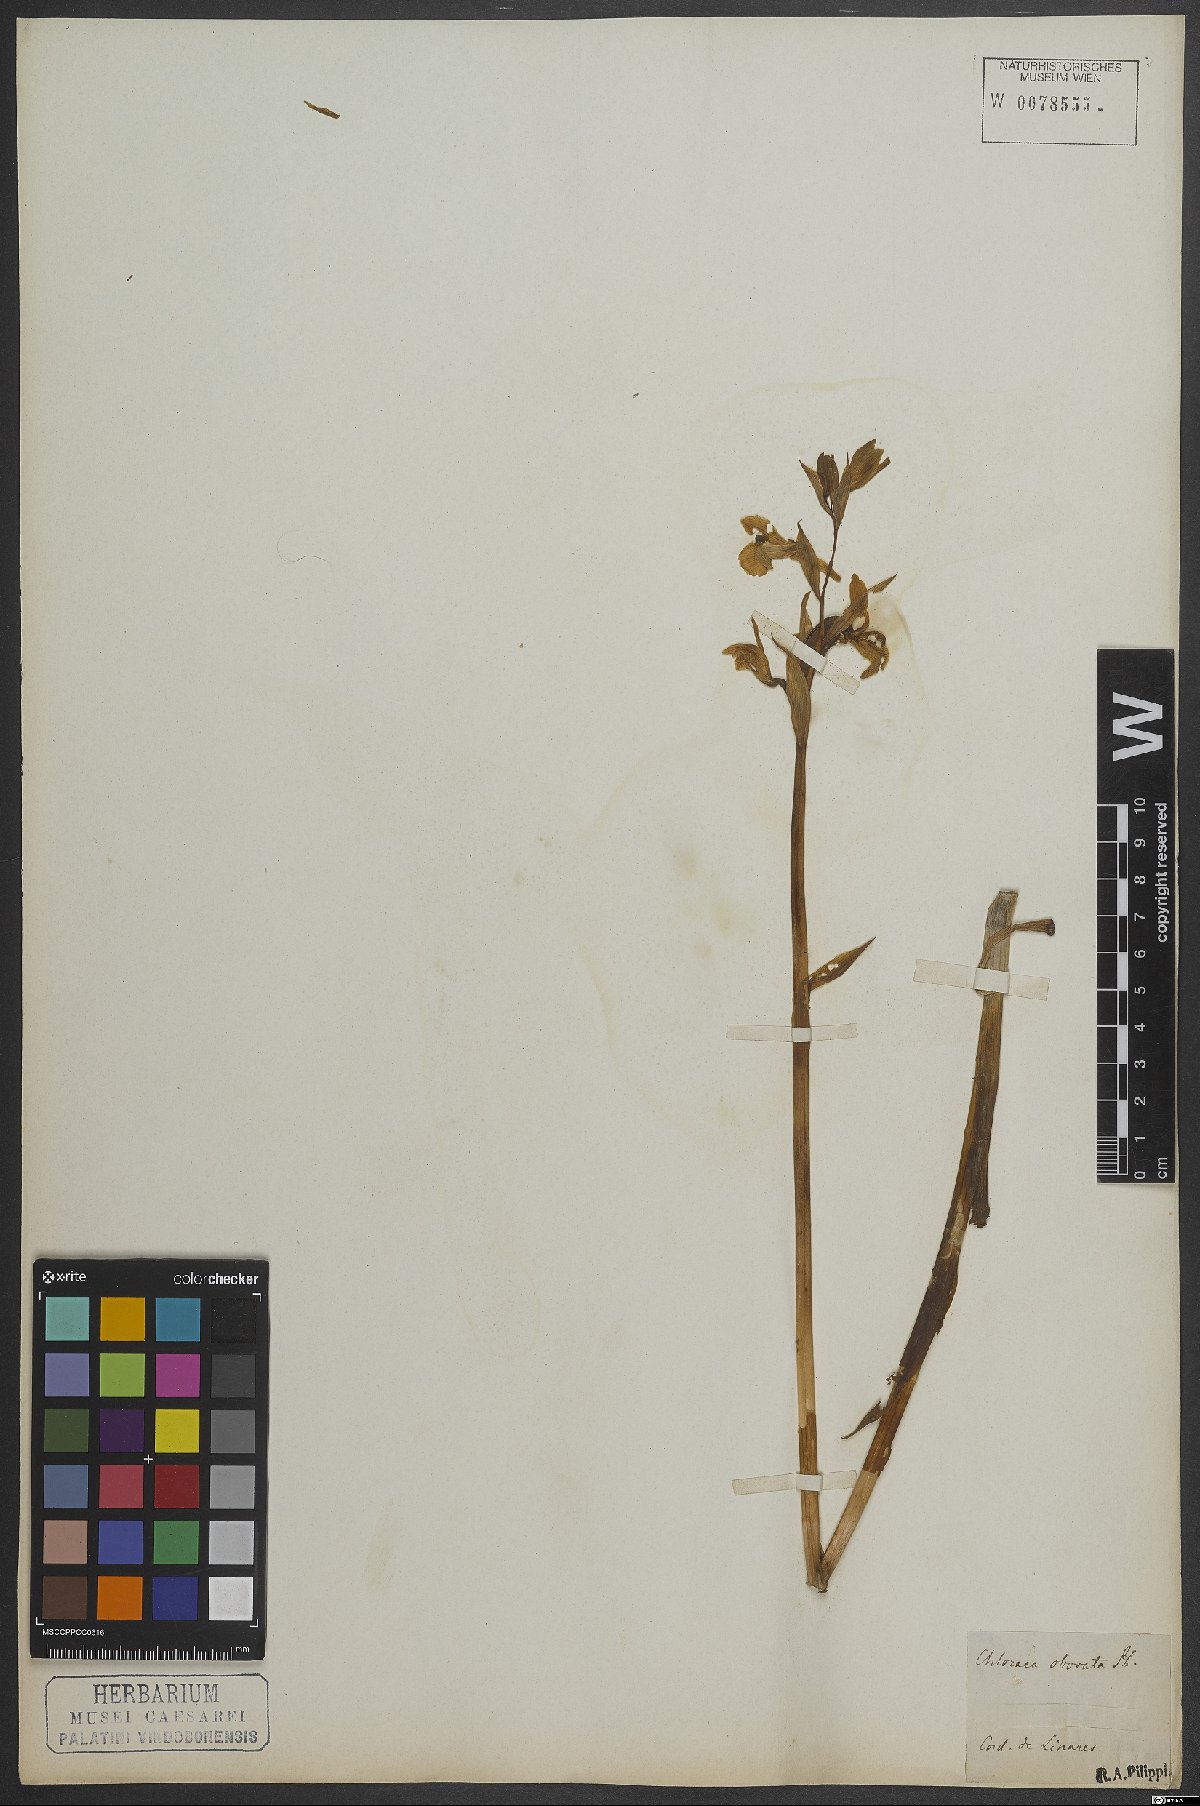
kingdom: Plantae
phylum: Tracheophyta
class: Liliopsida
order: Asparagales
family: Orchidaceae
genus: Chloraea
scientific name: Chloraea cuneata
